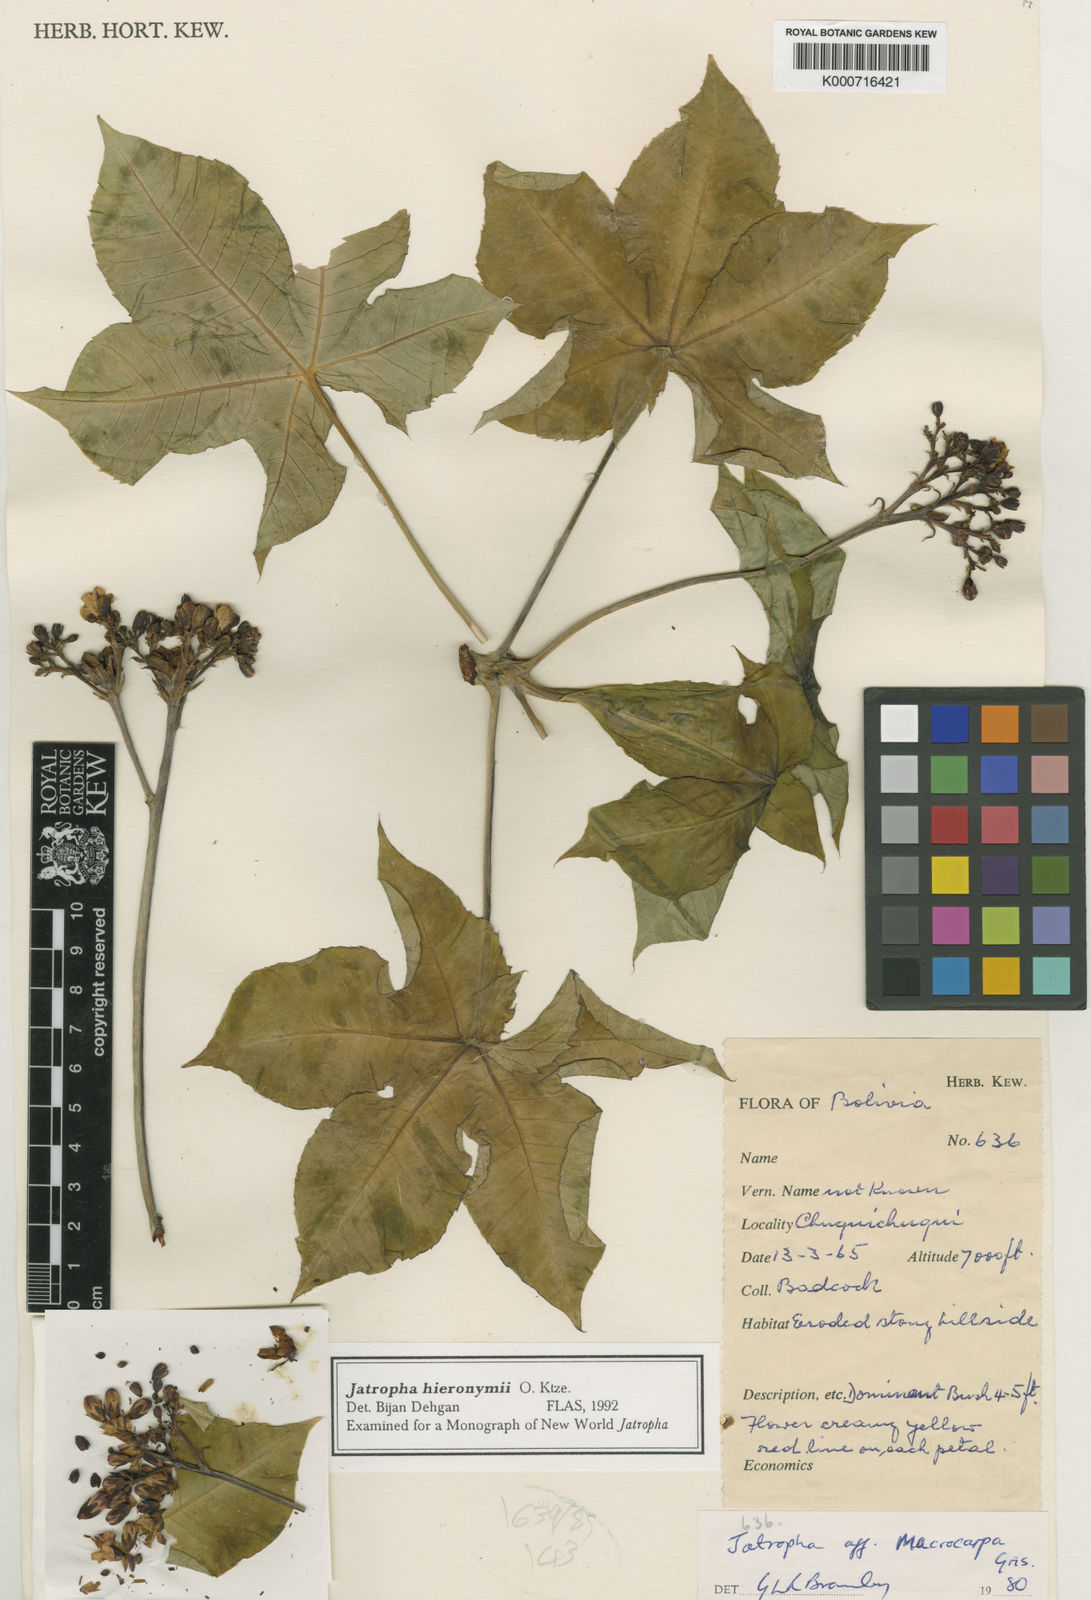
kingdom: Plantae
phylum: Tracheophyta
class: Magnoliopsida
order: Malpighiales
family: Euphorbiaceae
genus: Jatropha
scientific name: Jatropha hieronymi
